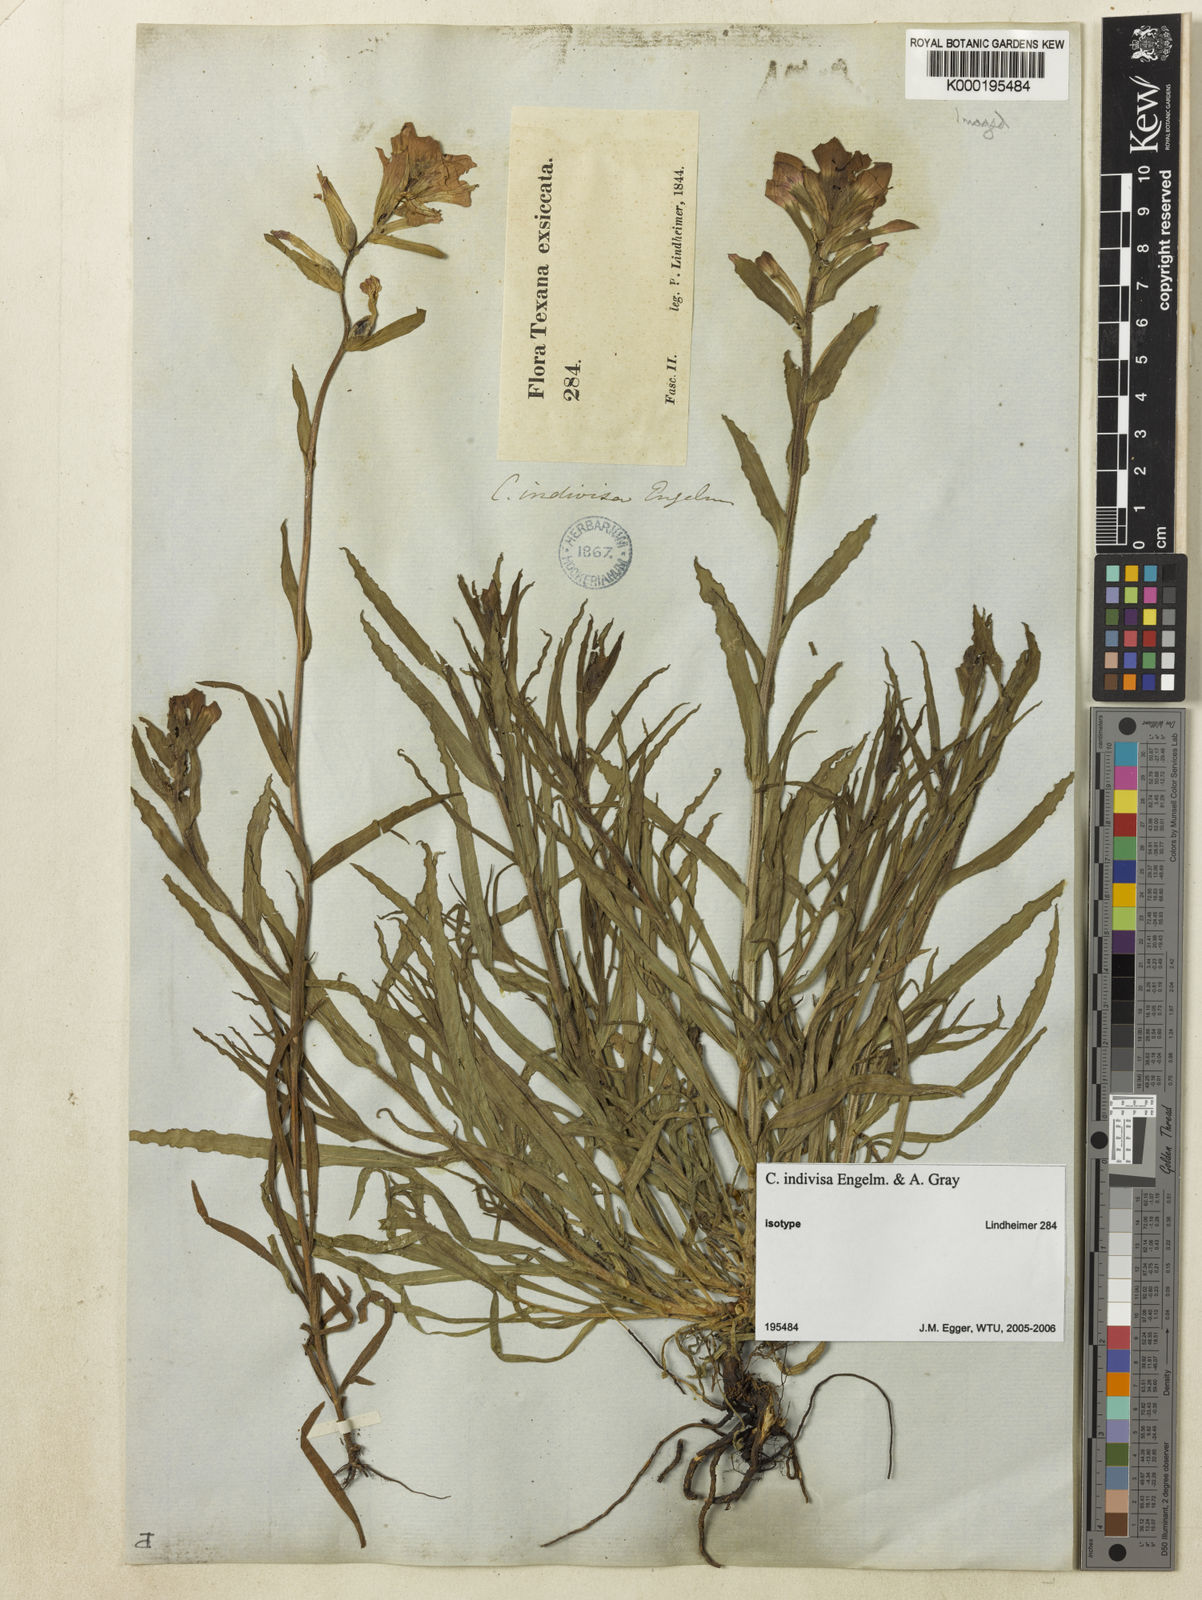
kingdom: Plantae
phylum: Tracheophyta
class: Magnoliopsida
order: Lamiales
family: Orobanchaceae
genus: Castilleja
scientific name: Castilleja indivisa
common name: Texas paintbrush
